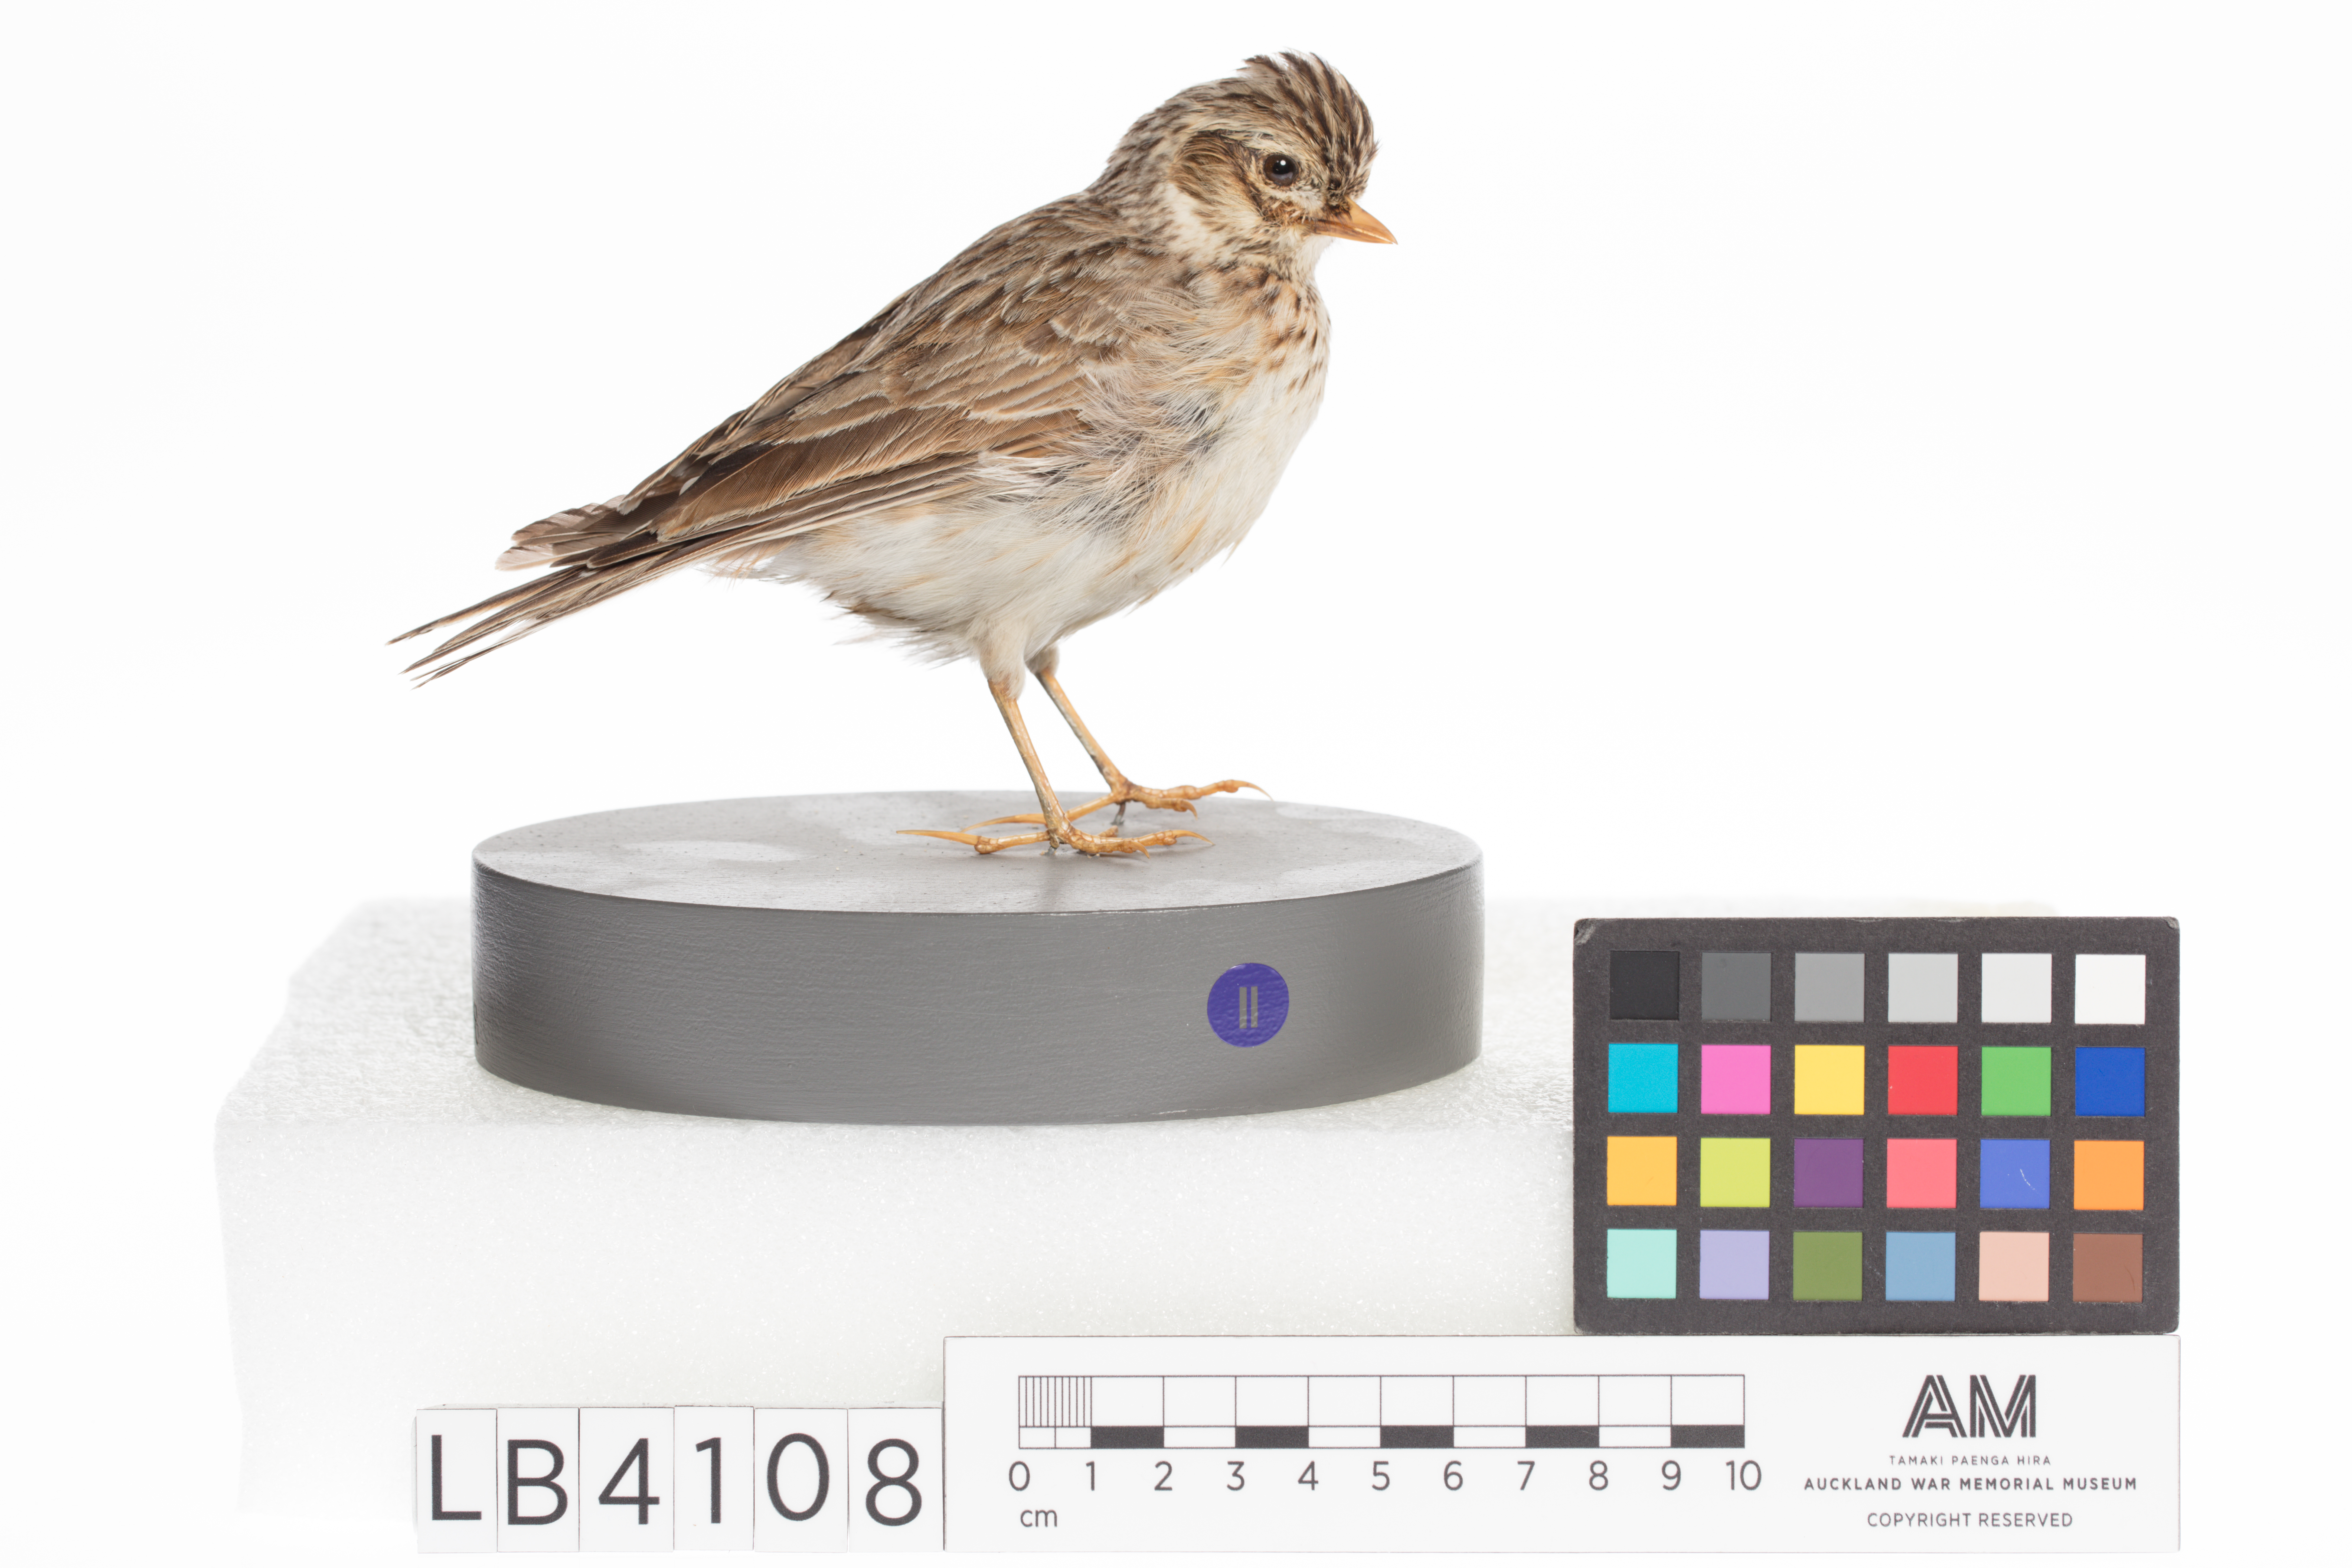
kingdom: Animalia
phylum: Chordata
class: Aves
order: Passeriformes
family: Alaudidae
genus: Alauda
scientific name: Alauda arvensis
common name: Eurasian skylark
